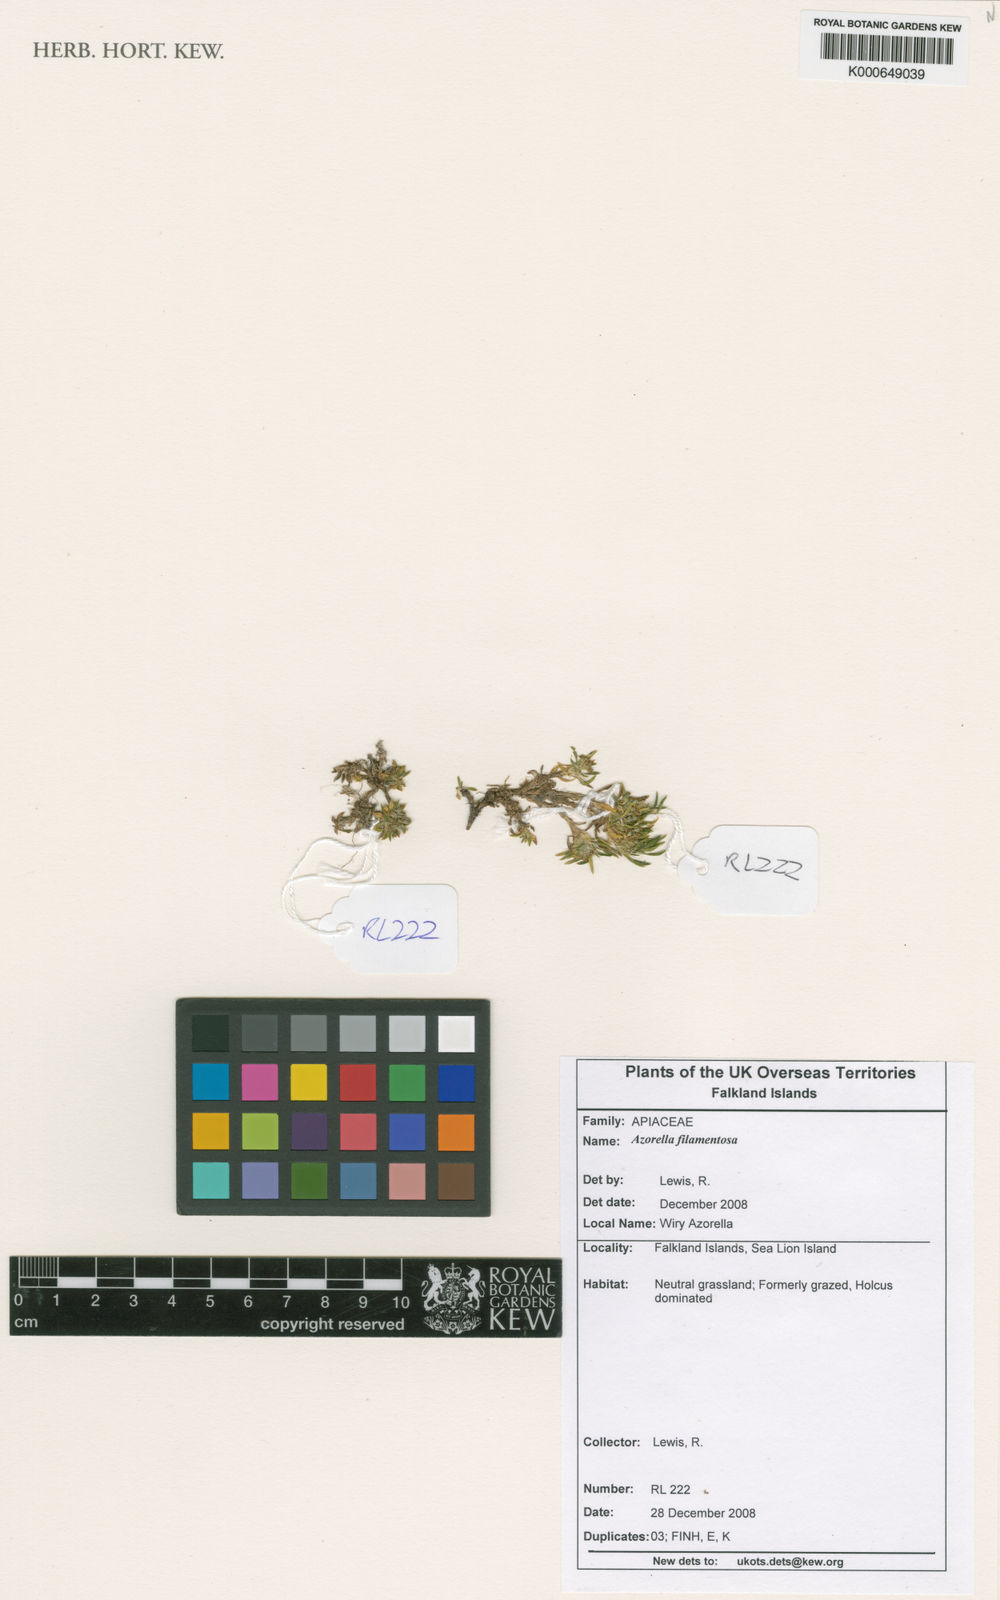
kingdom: Plantae
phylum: Tracheophyta
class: Magnoliopsida
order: Apiales
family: Apiaceae
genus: Azorella
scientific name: Azorella filamentosa
